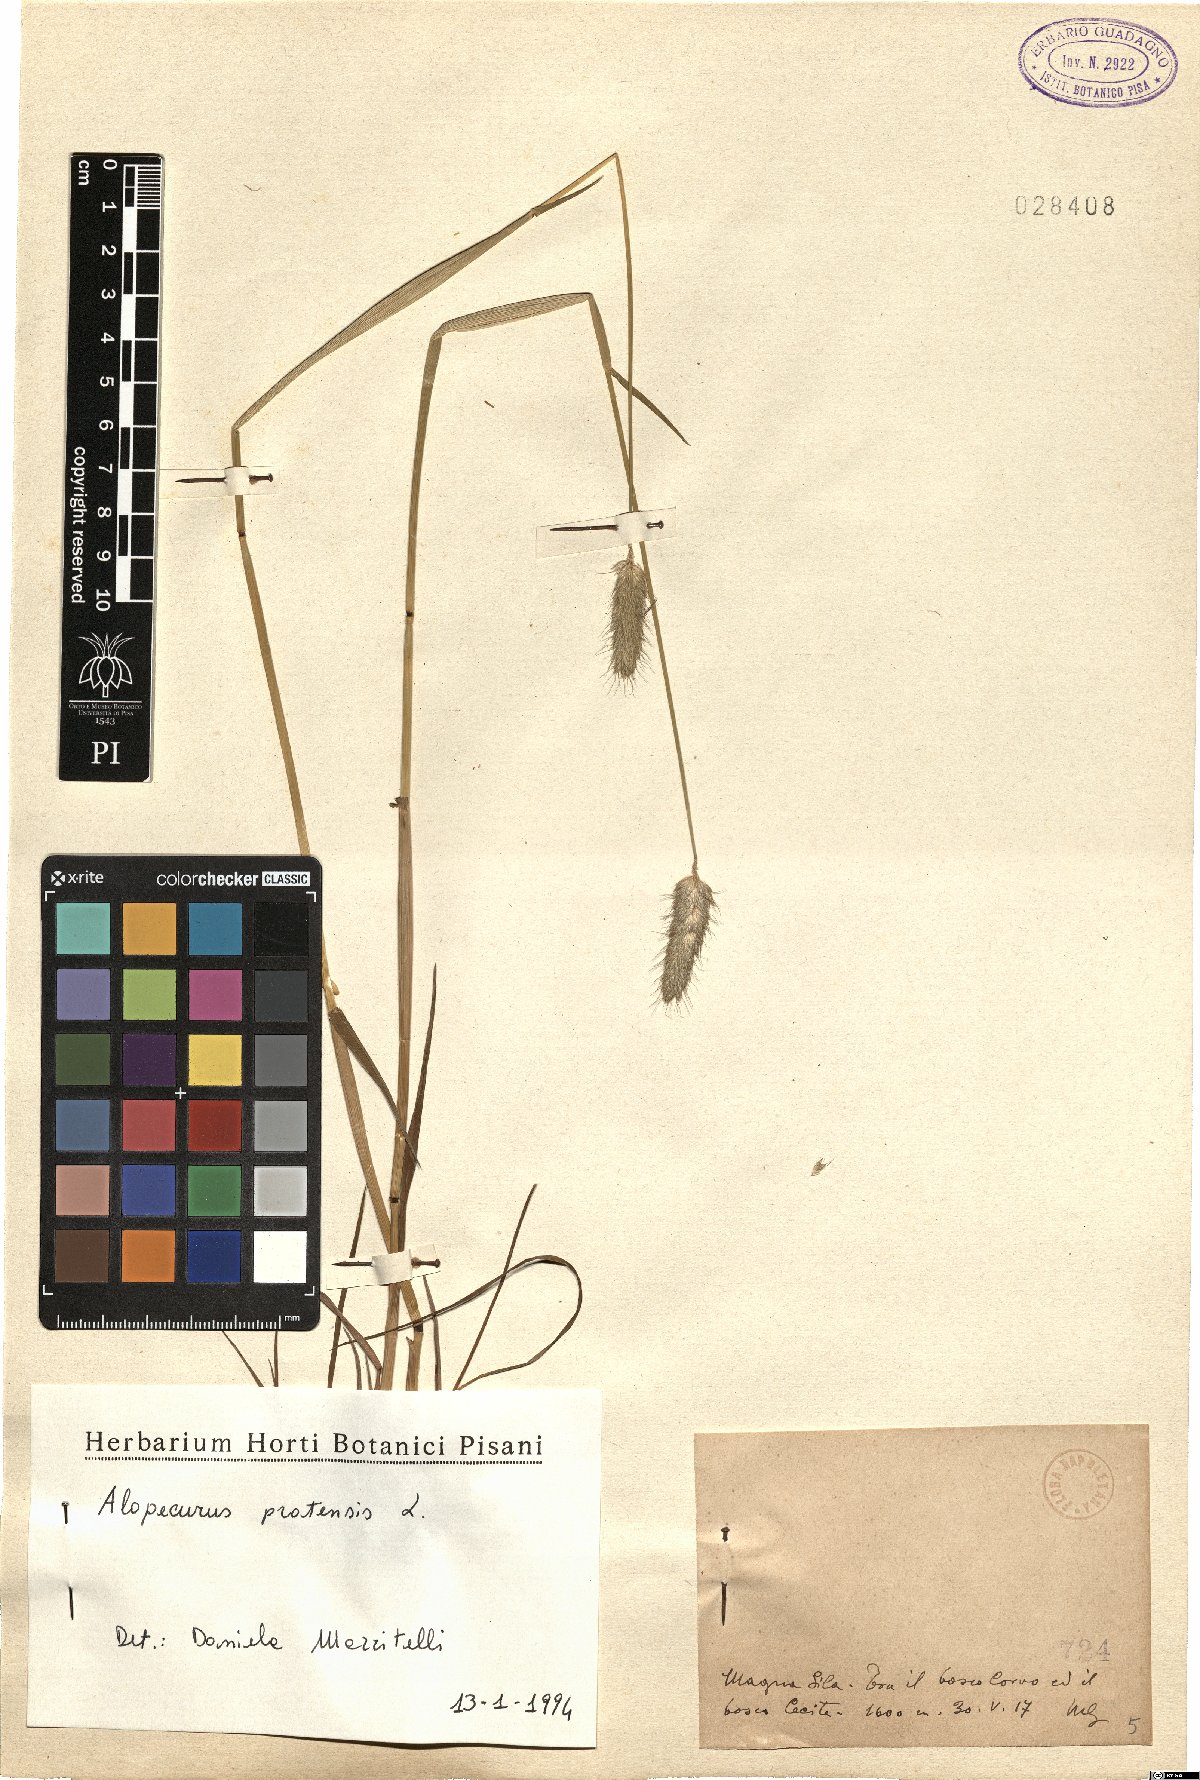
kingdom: Plantae
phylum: Tracheophyta
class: Liliopsida
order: Poales
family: Poaceae
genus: Alopecurus
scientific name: Alopecurus pratensis
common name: Meadow foxtail
